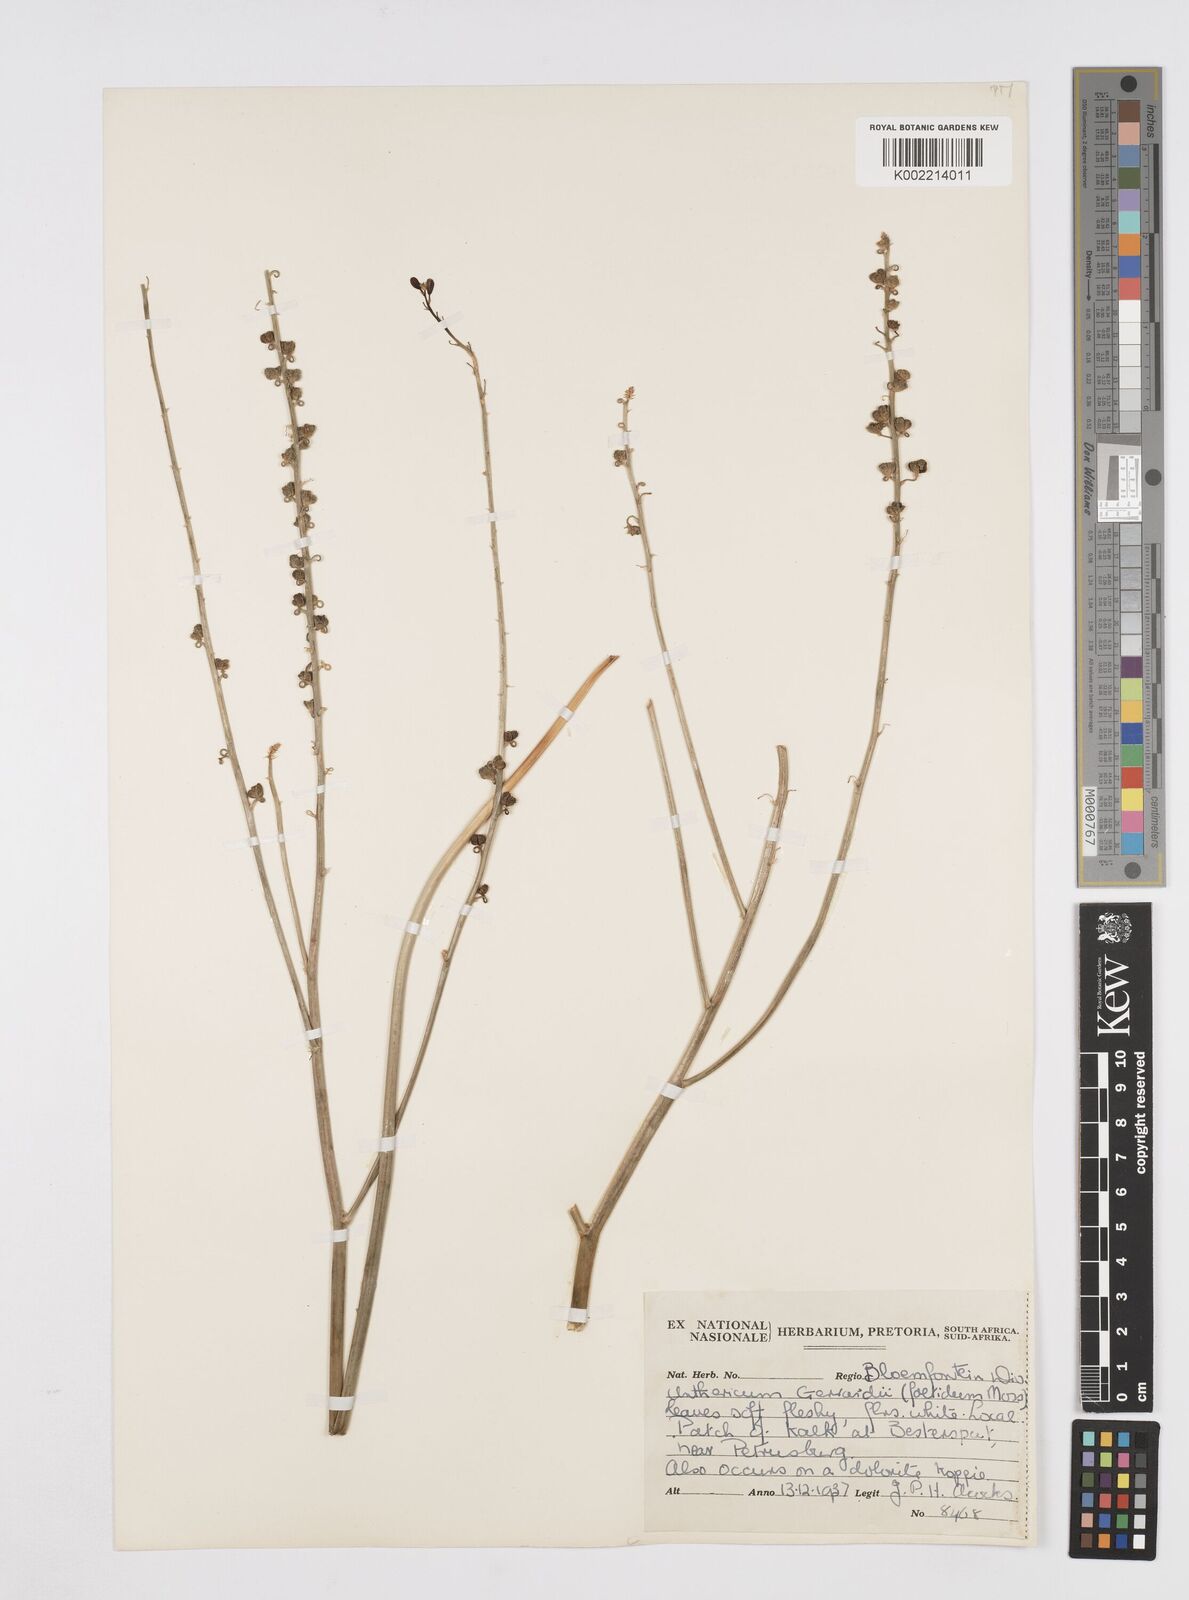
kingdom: Plantae
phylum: Tracheophyta
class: Liliopsida
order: Asparagales
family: Asphodelaceae
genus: Trachyandra
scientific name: Trachyandra gerrardii
